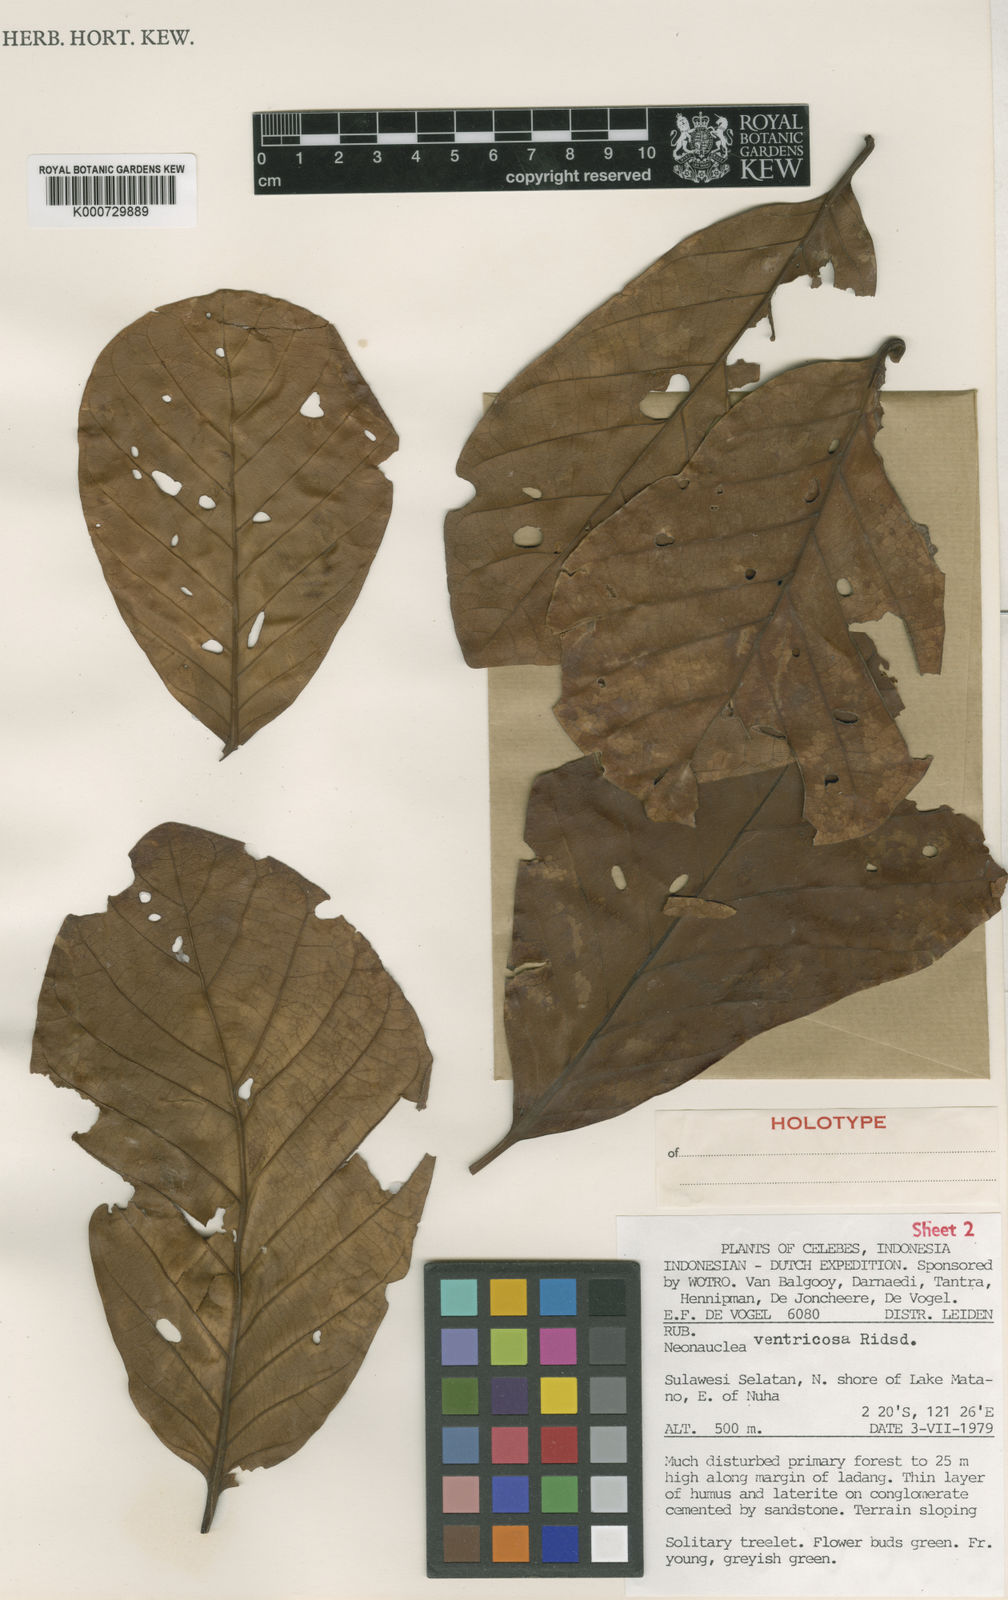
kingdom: Plantae
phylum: Tracheophyta
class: Magnoliopsida
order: Gentianales
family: Rubiaceae
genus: Neonauclea
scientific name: Neonauclea ventricosa
